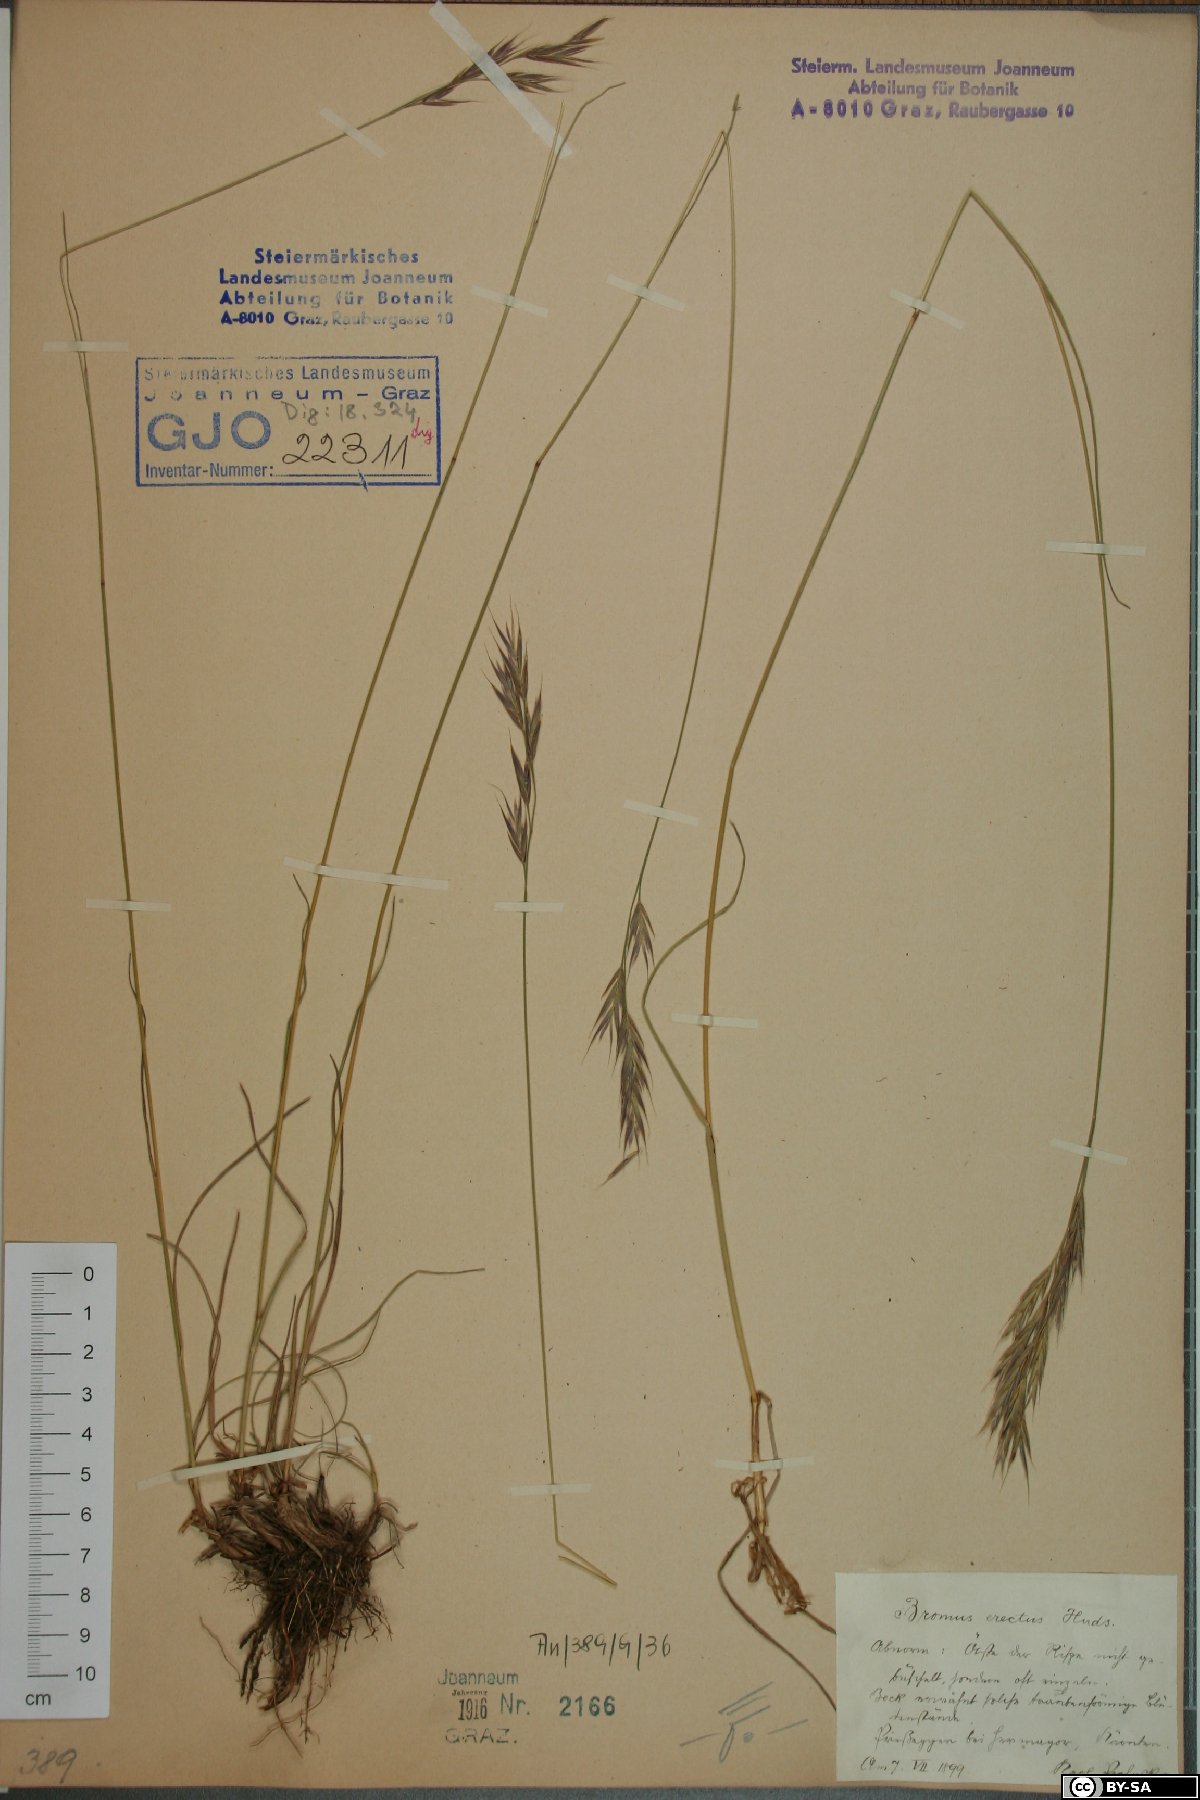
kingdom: Plantae
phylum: Tracheophyta
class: Liliopsida
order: Poales
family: Poaceae
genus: Bromus
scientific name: Bromus erectus
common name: Erect brome
